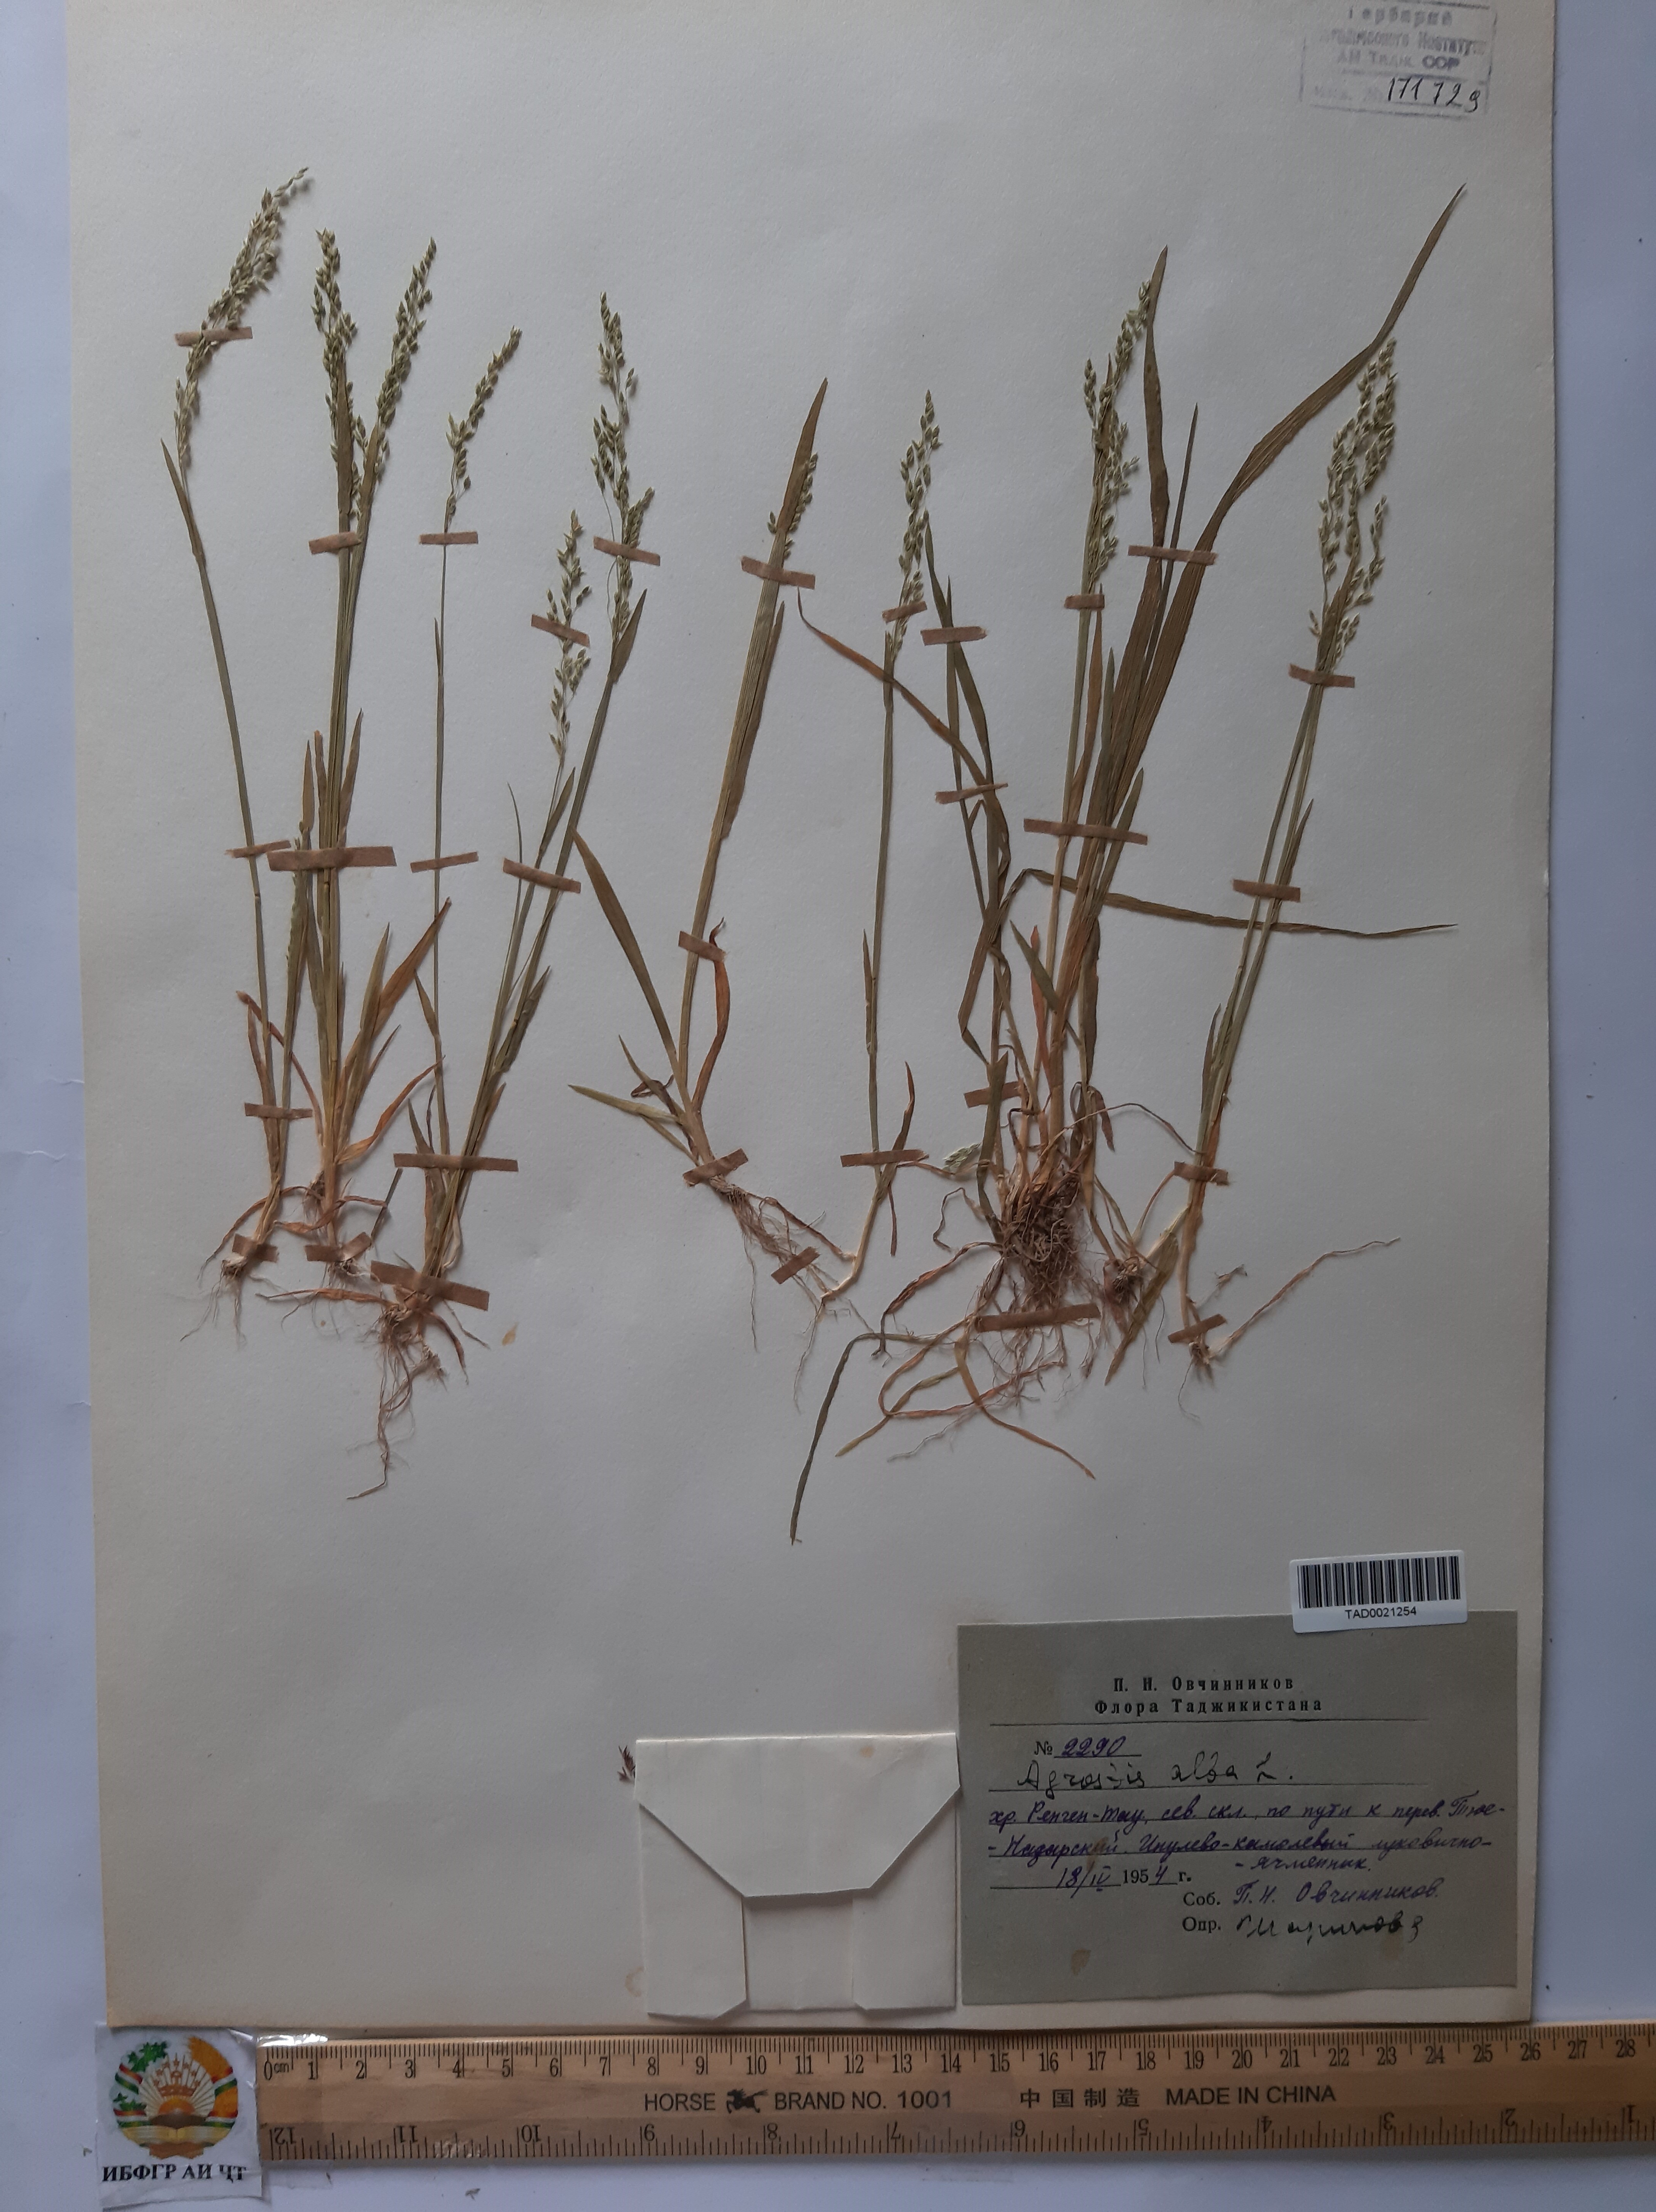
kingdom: Plantae
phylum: Tracheophyta
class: Liliopsida
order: Poales
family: Poaceae
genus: Poa
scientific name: Poa nemoralis
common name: Wood bluegrass
